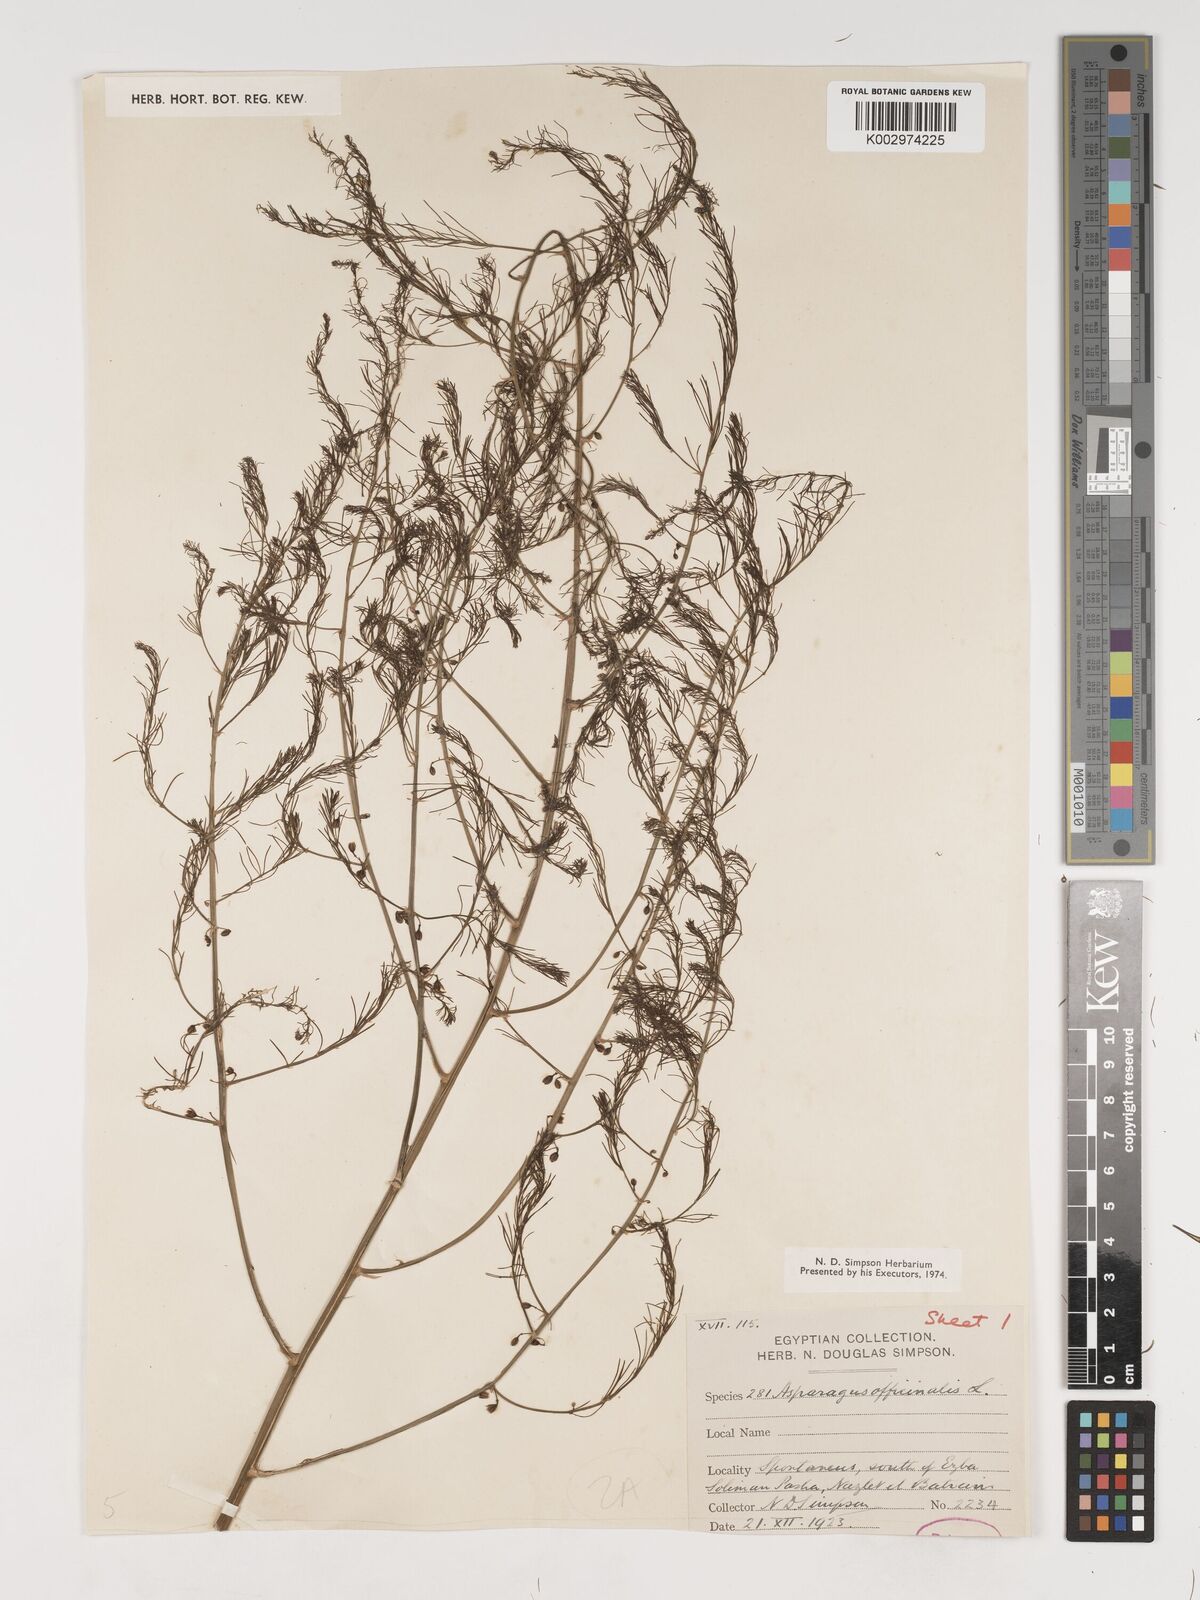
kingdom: Plantae
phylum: Tracheophyta
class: Liliopsida
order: Asparagales
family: Asparagaceae
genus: Asparagus
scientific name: Asparagus officinalis
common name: Garden asparagus
